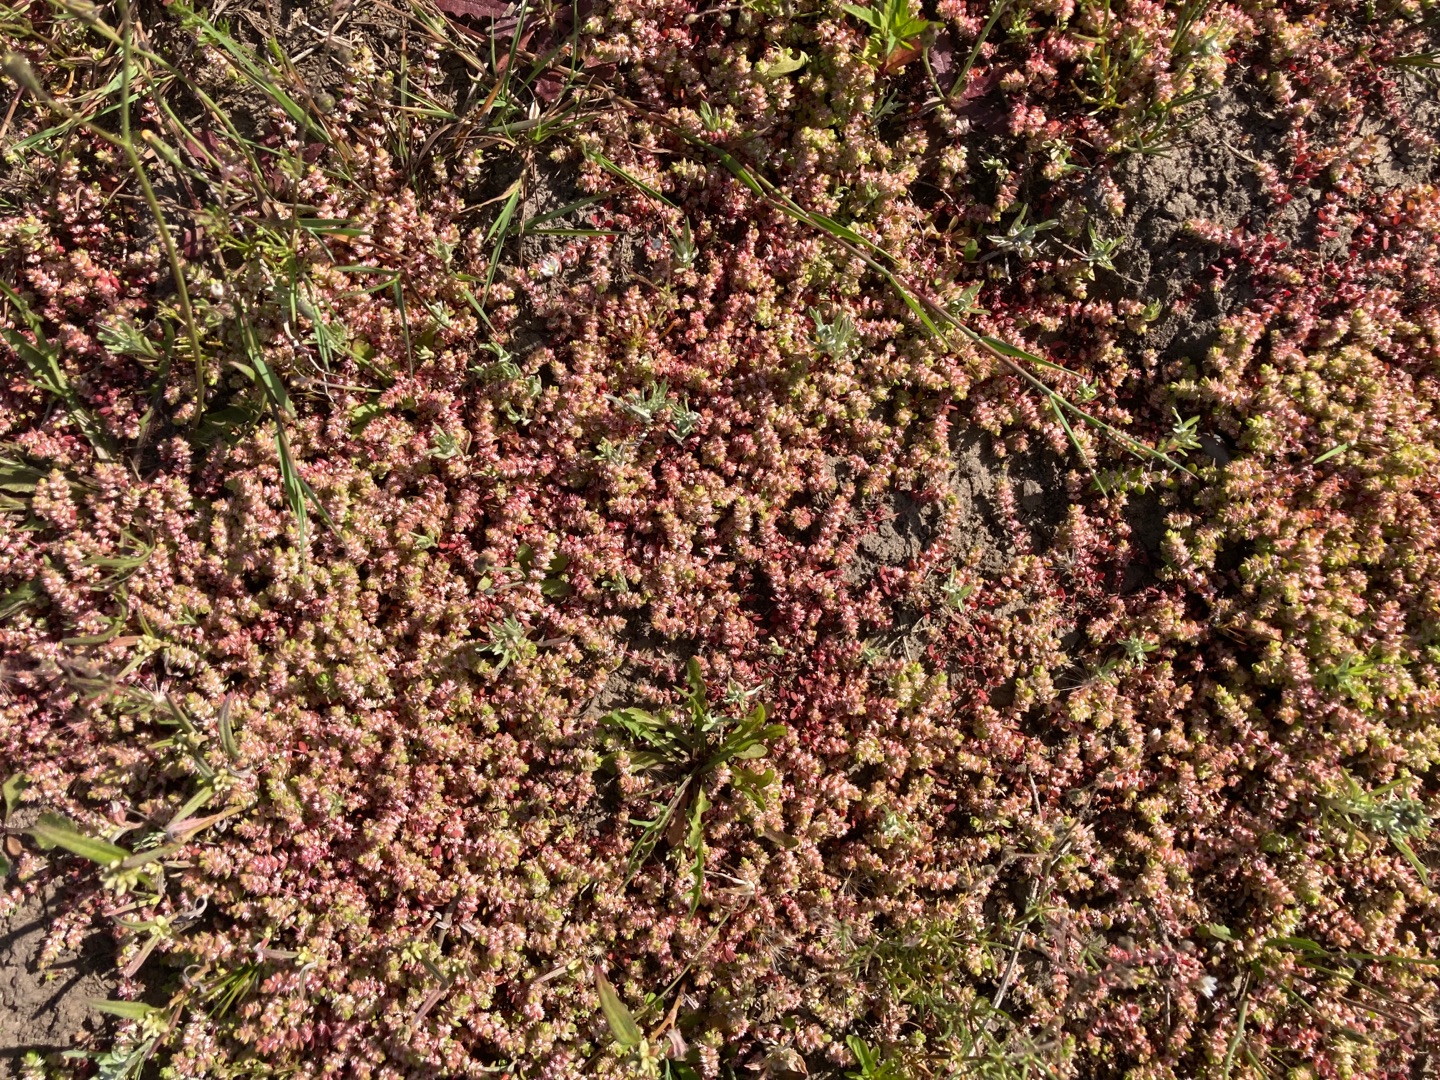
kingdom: Plantae
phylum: Tracheophyta
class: Magnoliopsida
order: Caryophyllales
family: Caryophyllaceae
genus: Illecebrum
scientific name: Illecebrum verticillatum
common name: Bruskbæger
